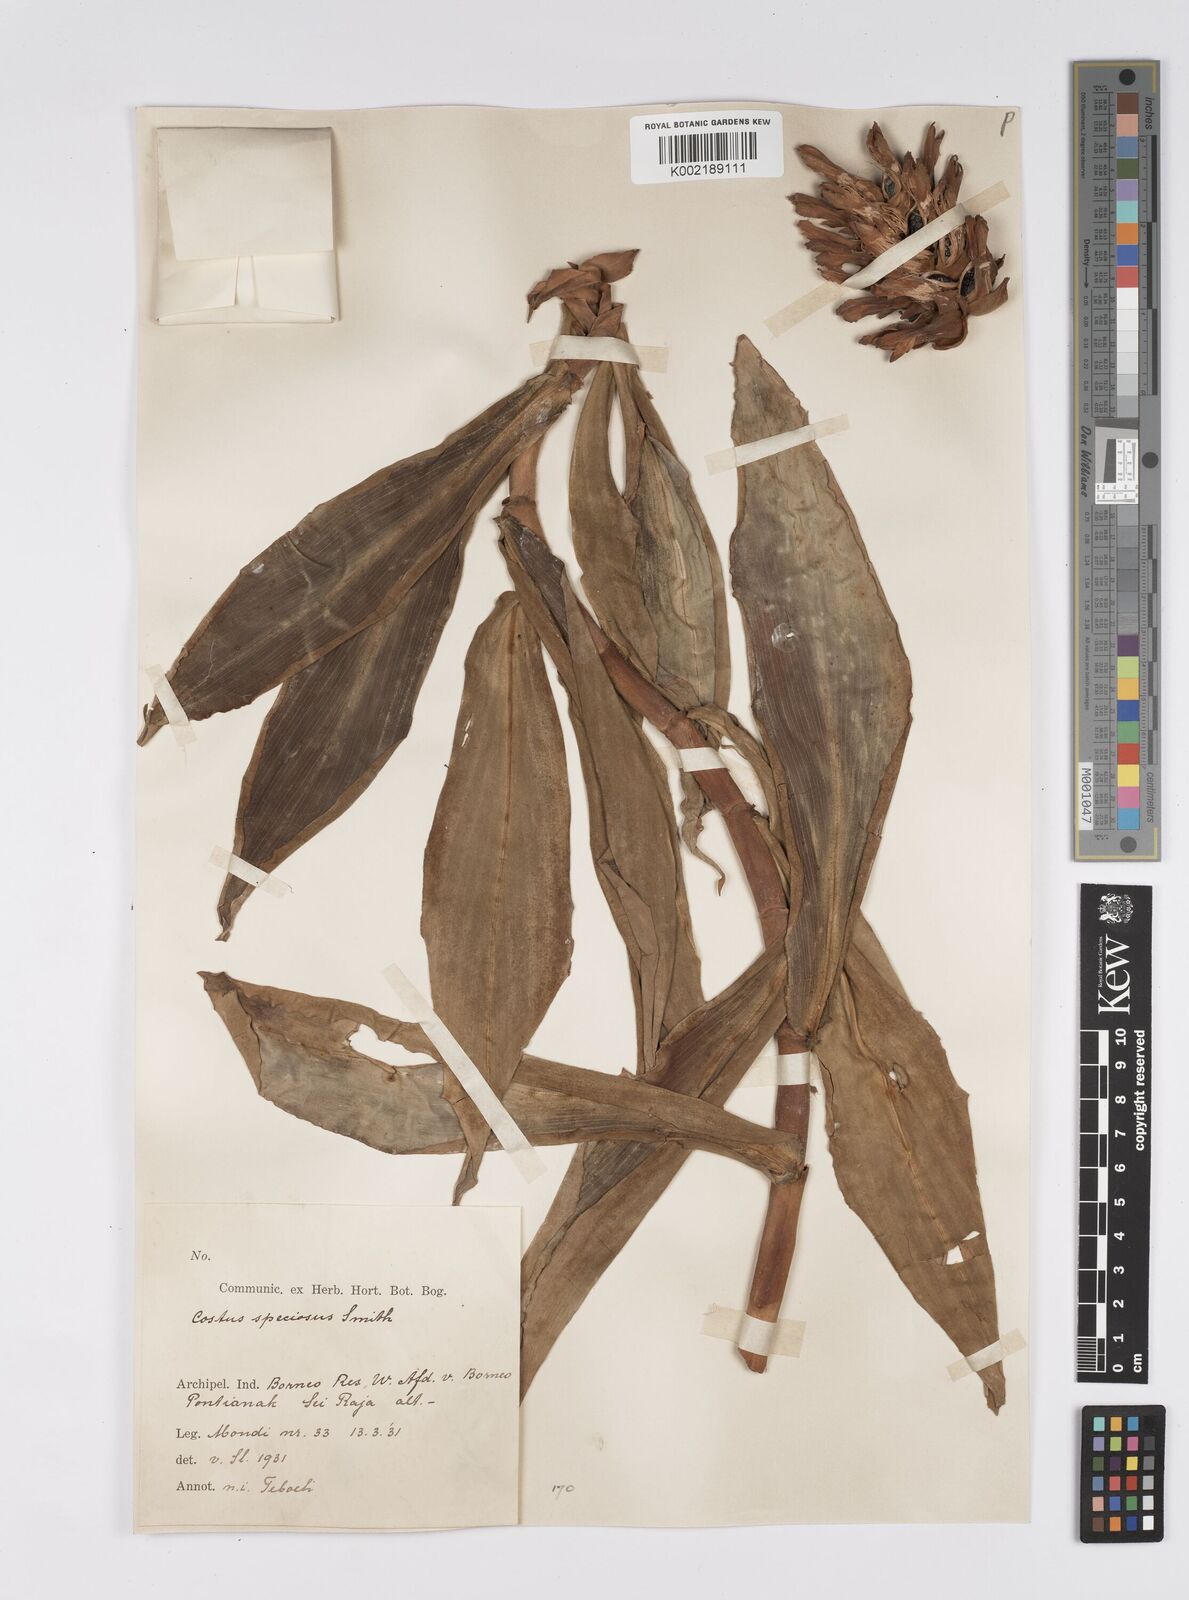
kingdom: Plantae
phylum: Tracheophyta
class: Liliopsida
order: Zingiberales
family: Costaceae
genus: Hellenia
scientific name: Hellenia speciosa
